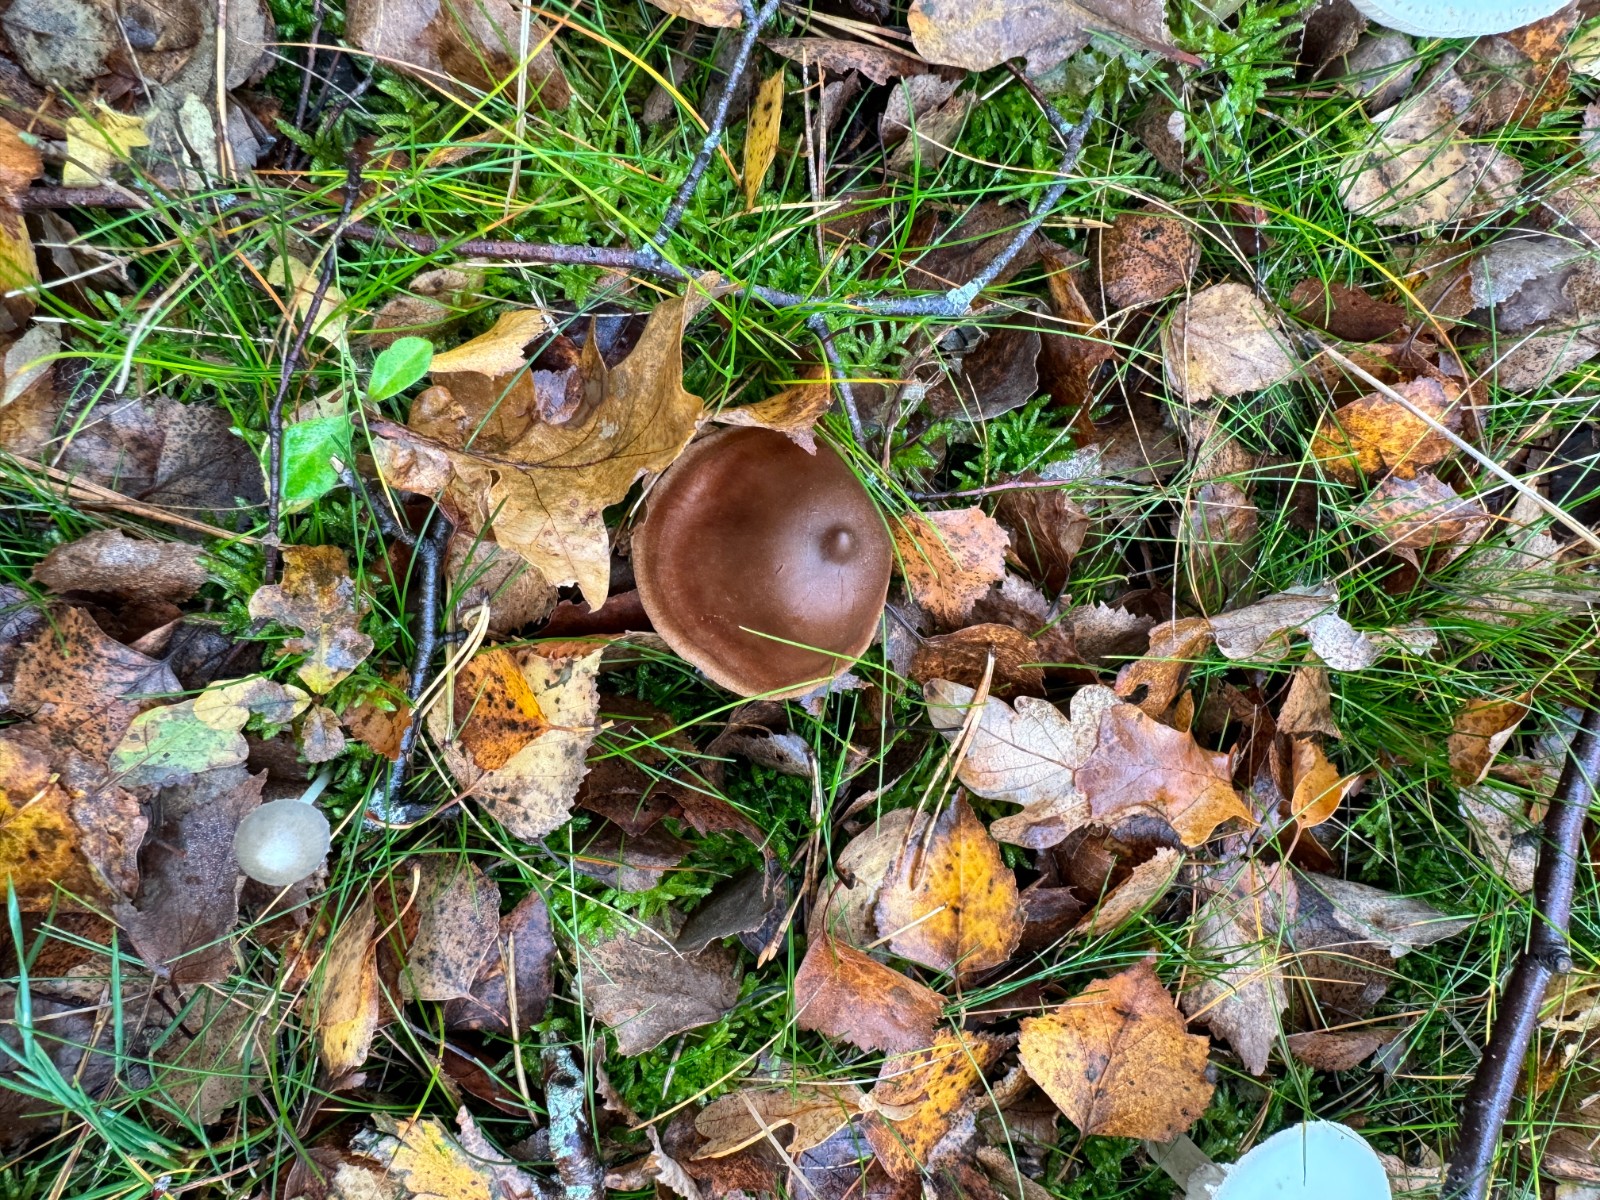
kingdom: Fungi
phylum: Basidiomycota
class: Agaricomycetes
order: Agaricales
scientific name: Agaricales
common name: champignonordenen
